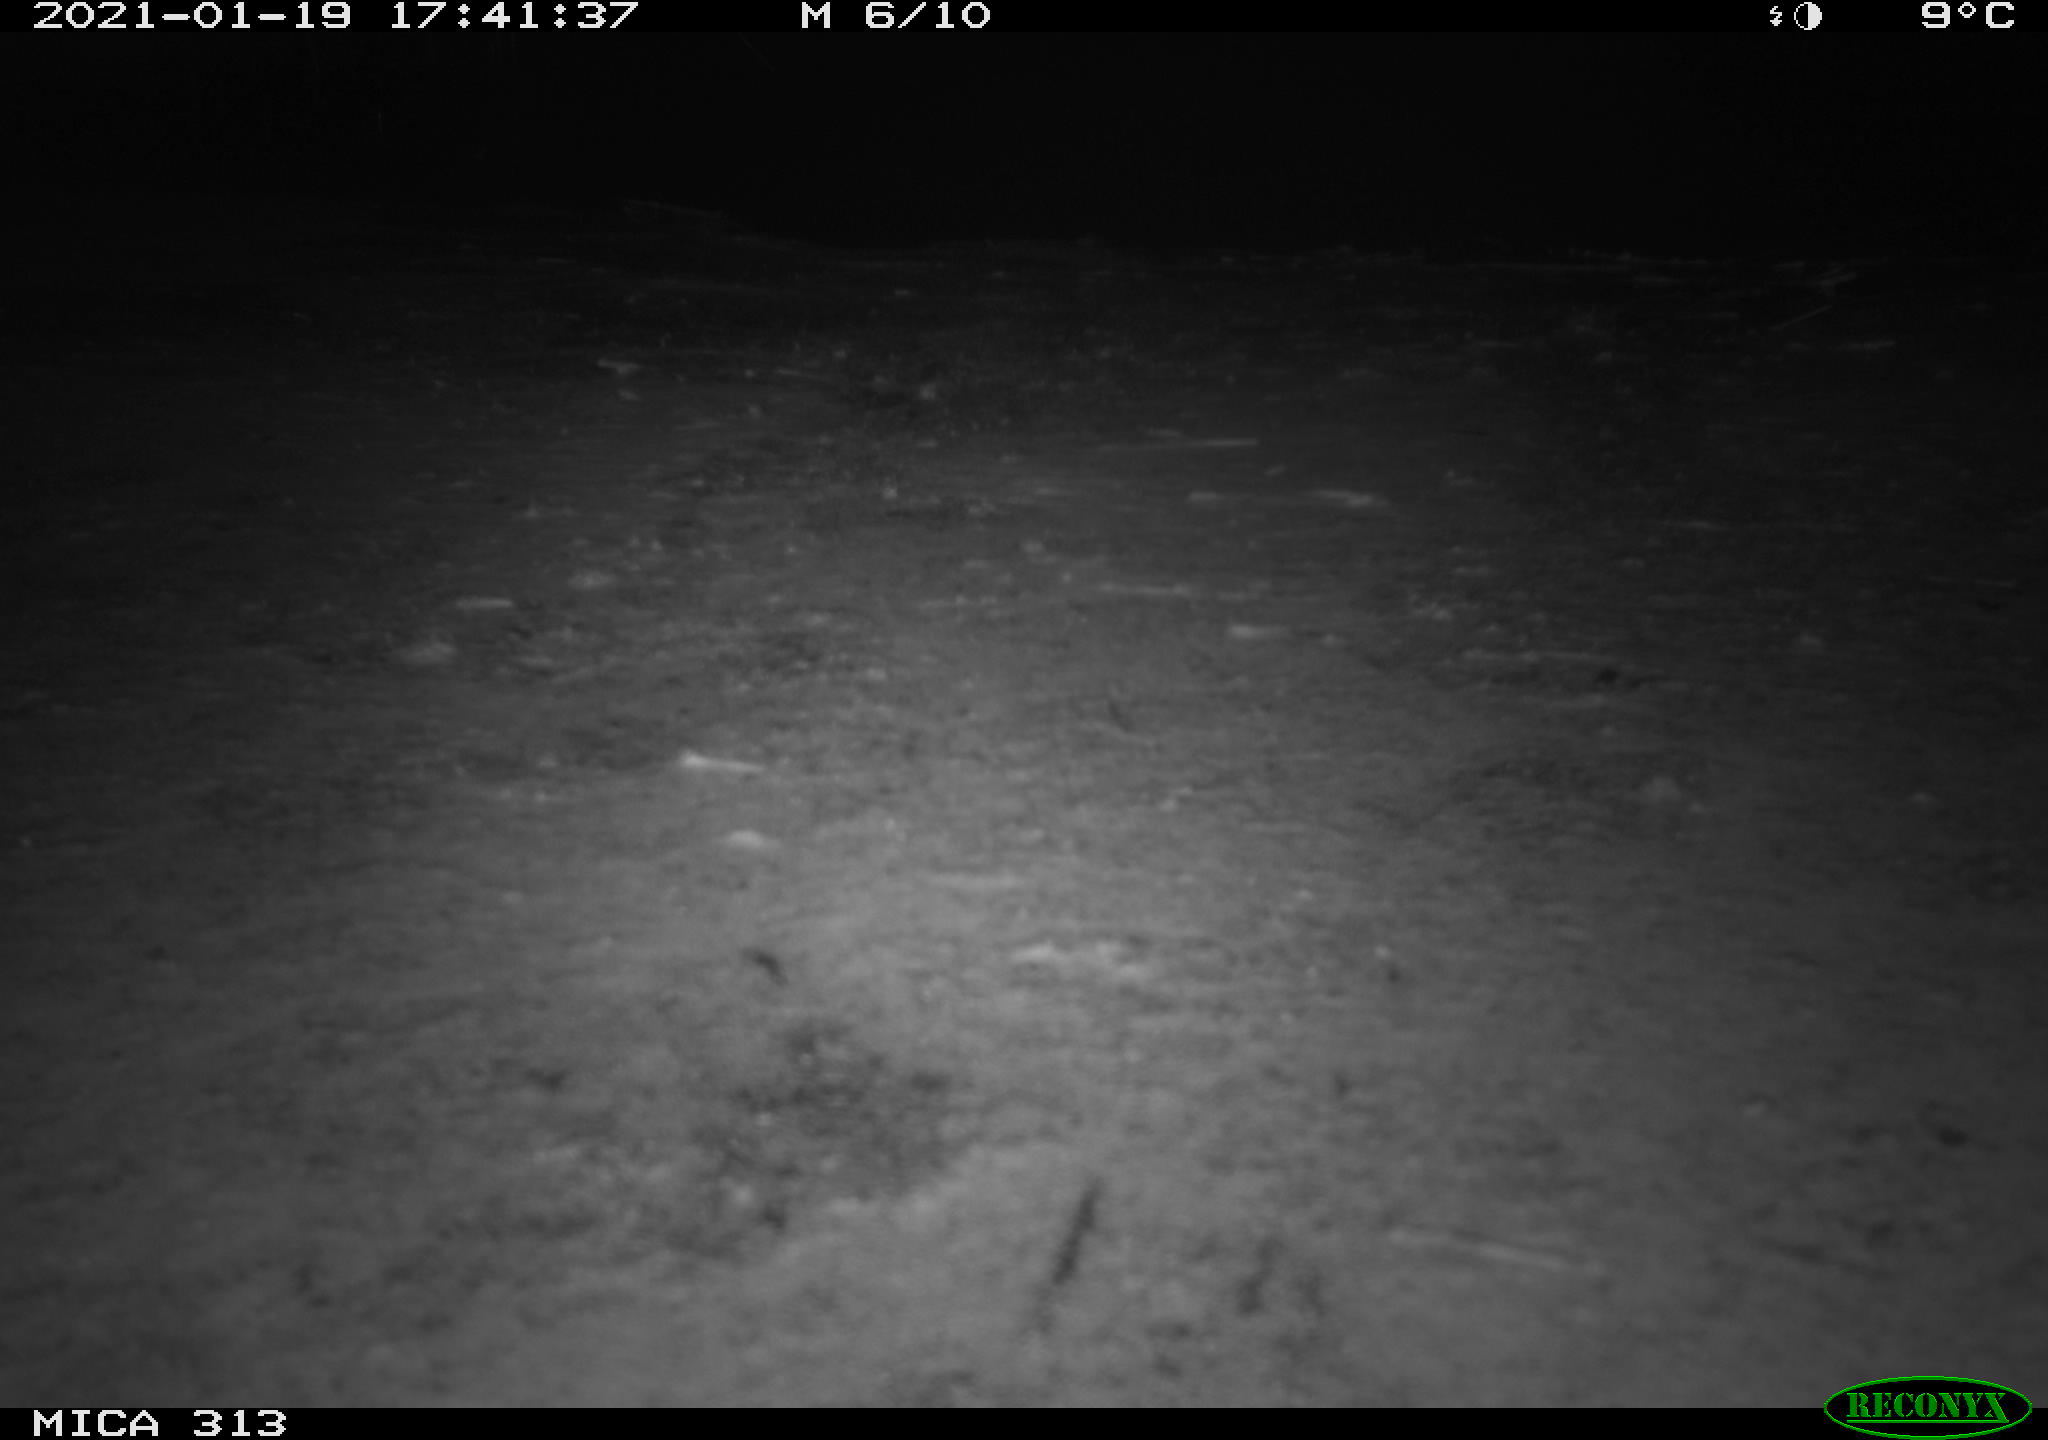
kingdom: Animalia
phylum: Chordata
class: Aves
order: Gruiformes
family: Rallidae
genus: Gallinula
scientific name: Gallinula chloropus
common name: Common moorhen
